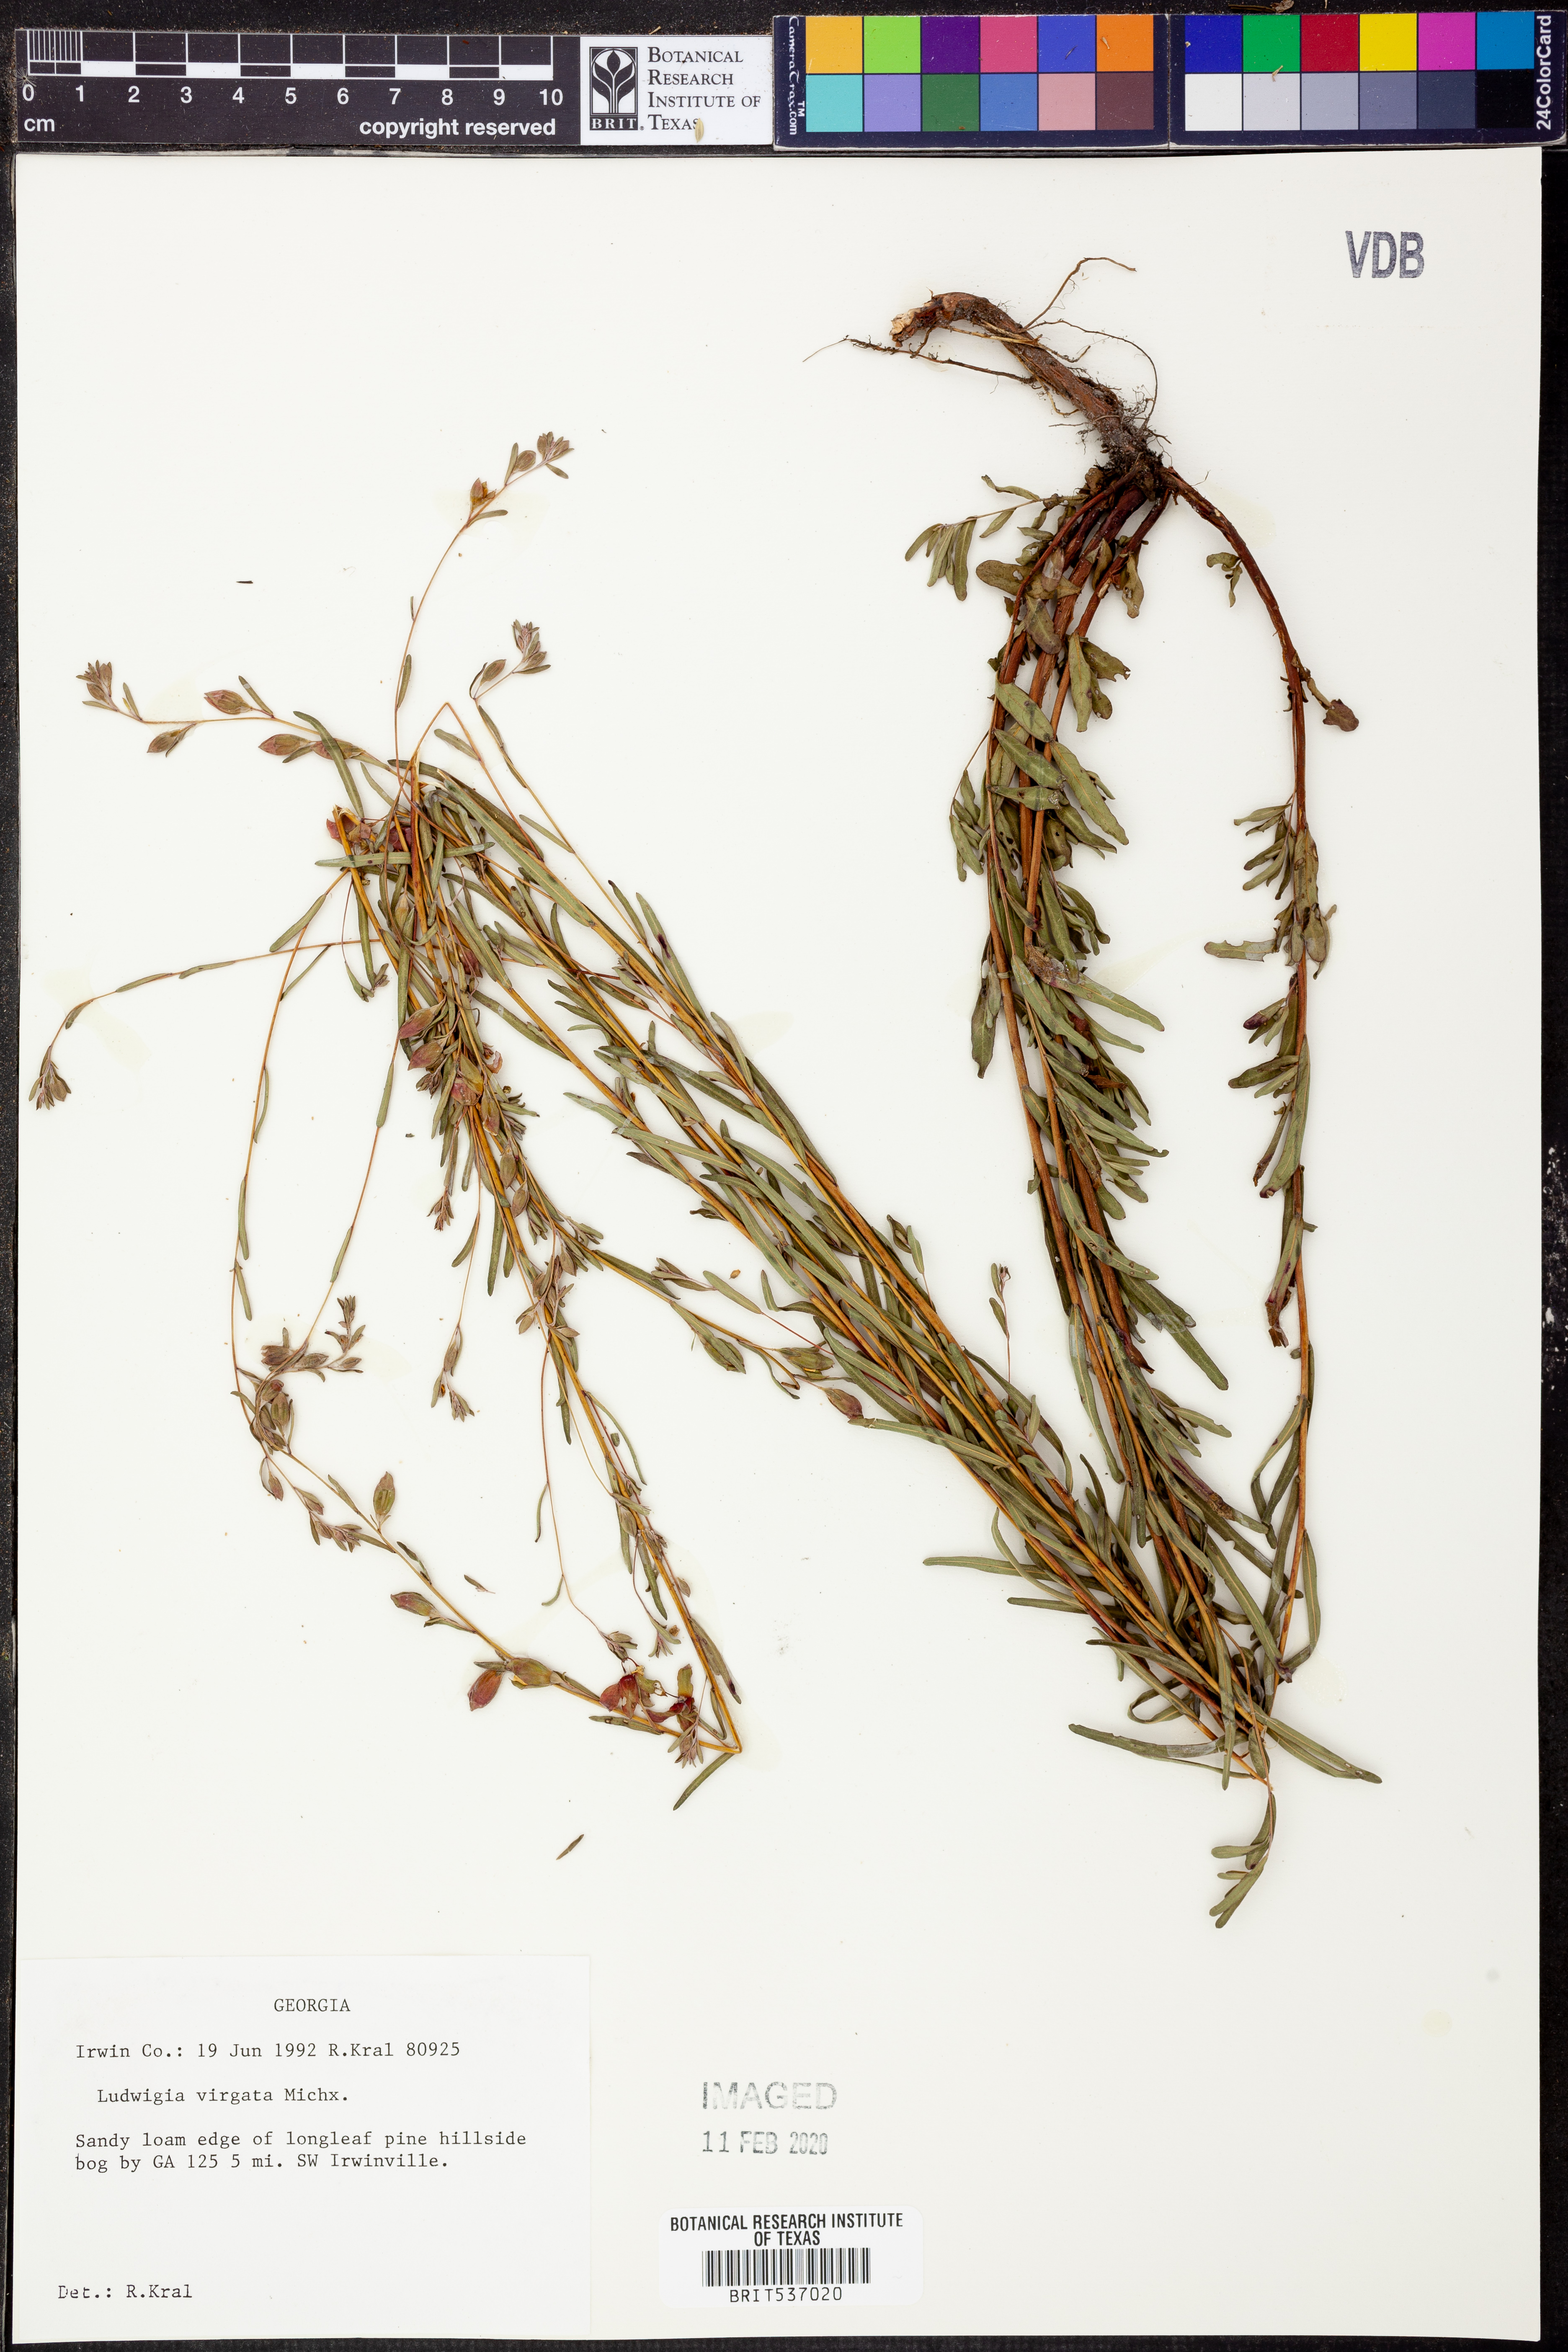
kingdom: Plantae
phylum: Tracheophyta
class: Magnoliopsida
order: Myrtales
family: Onagraceae
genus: Ludwigia
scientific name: Ludwigia virgata
